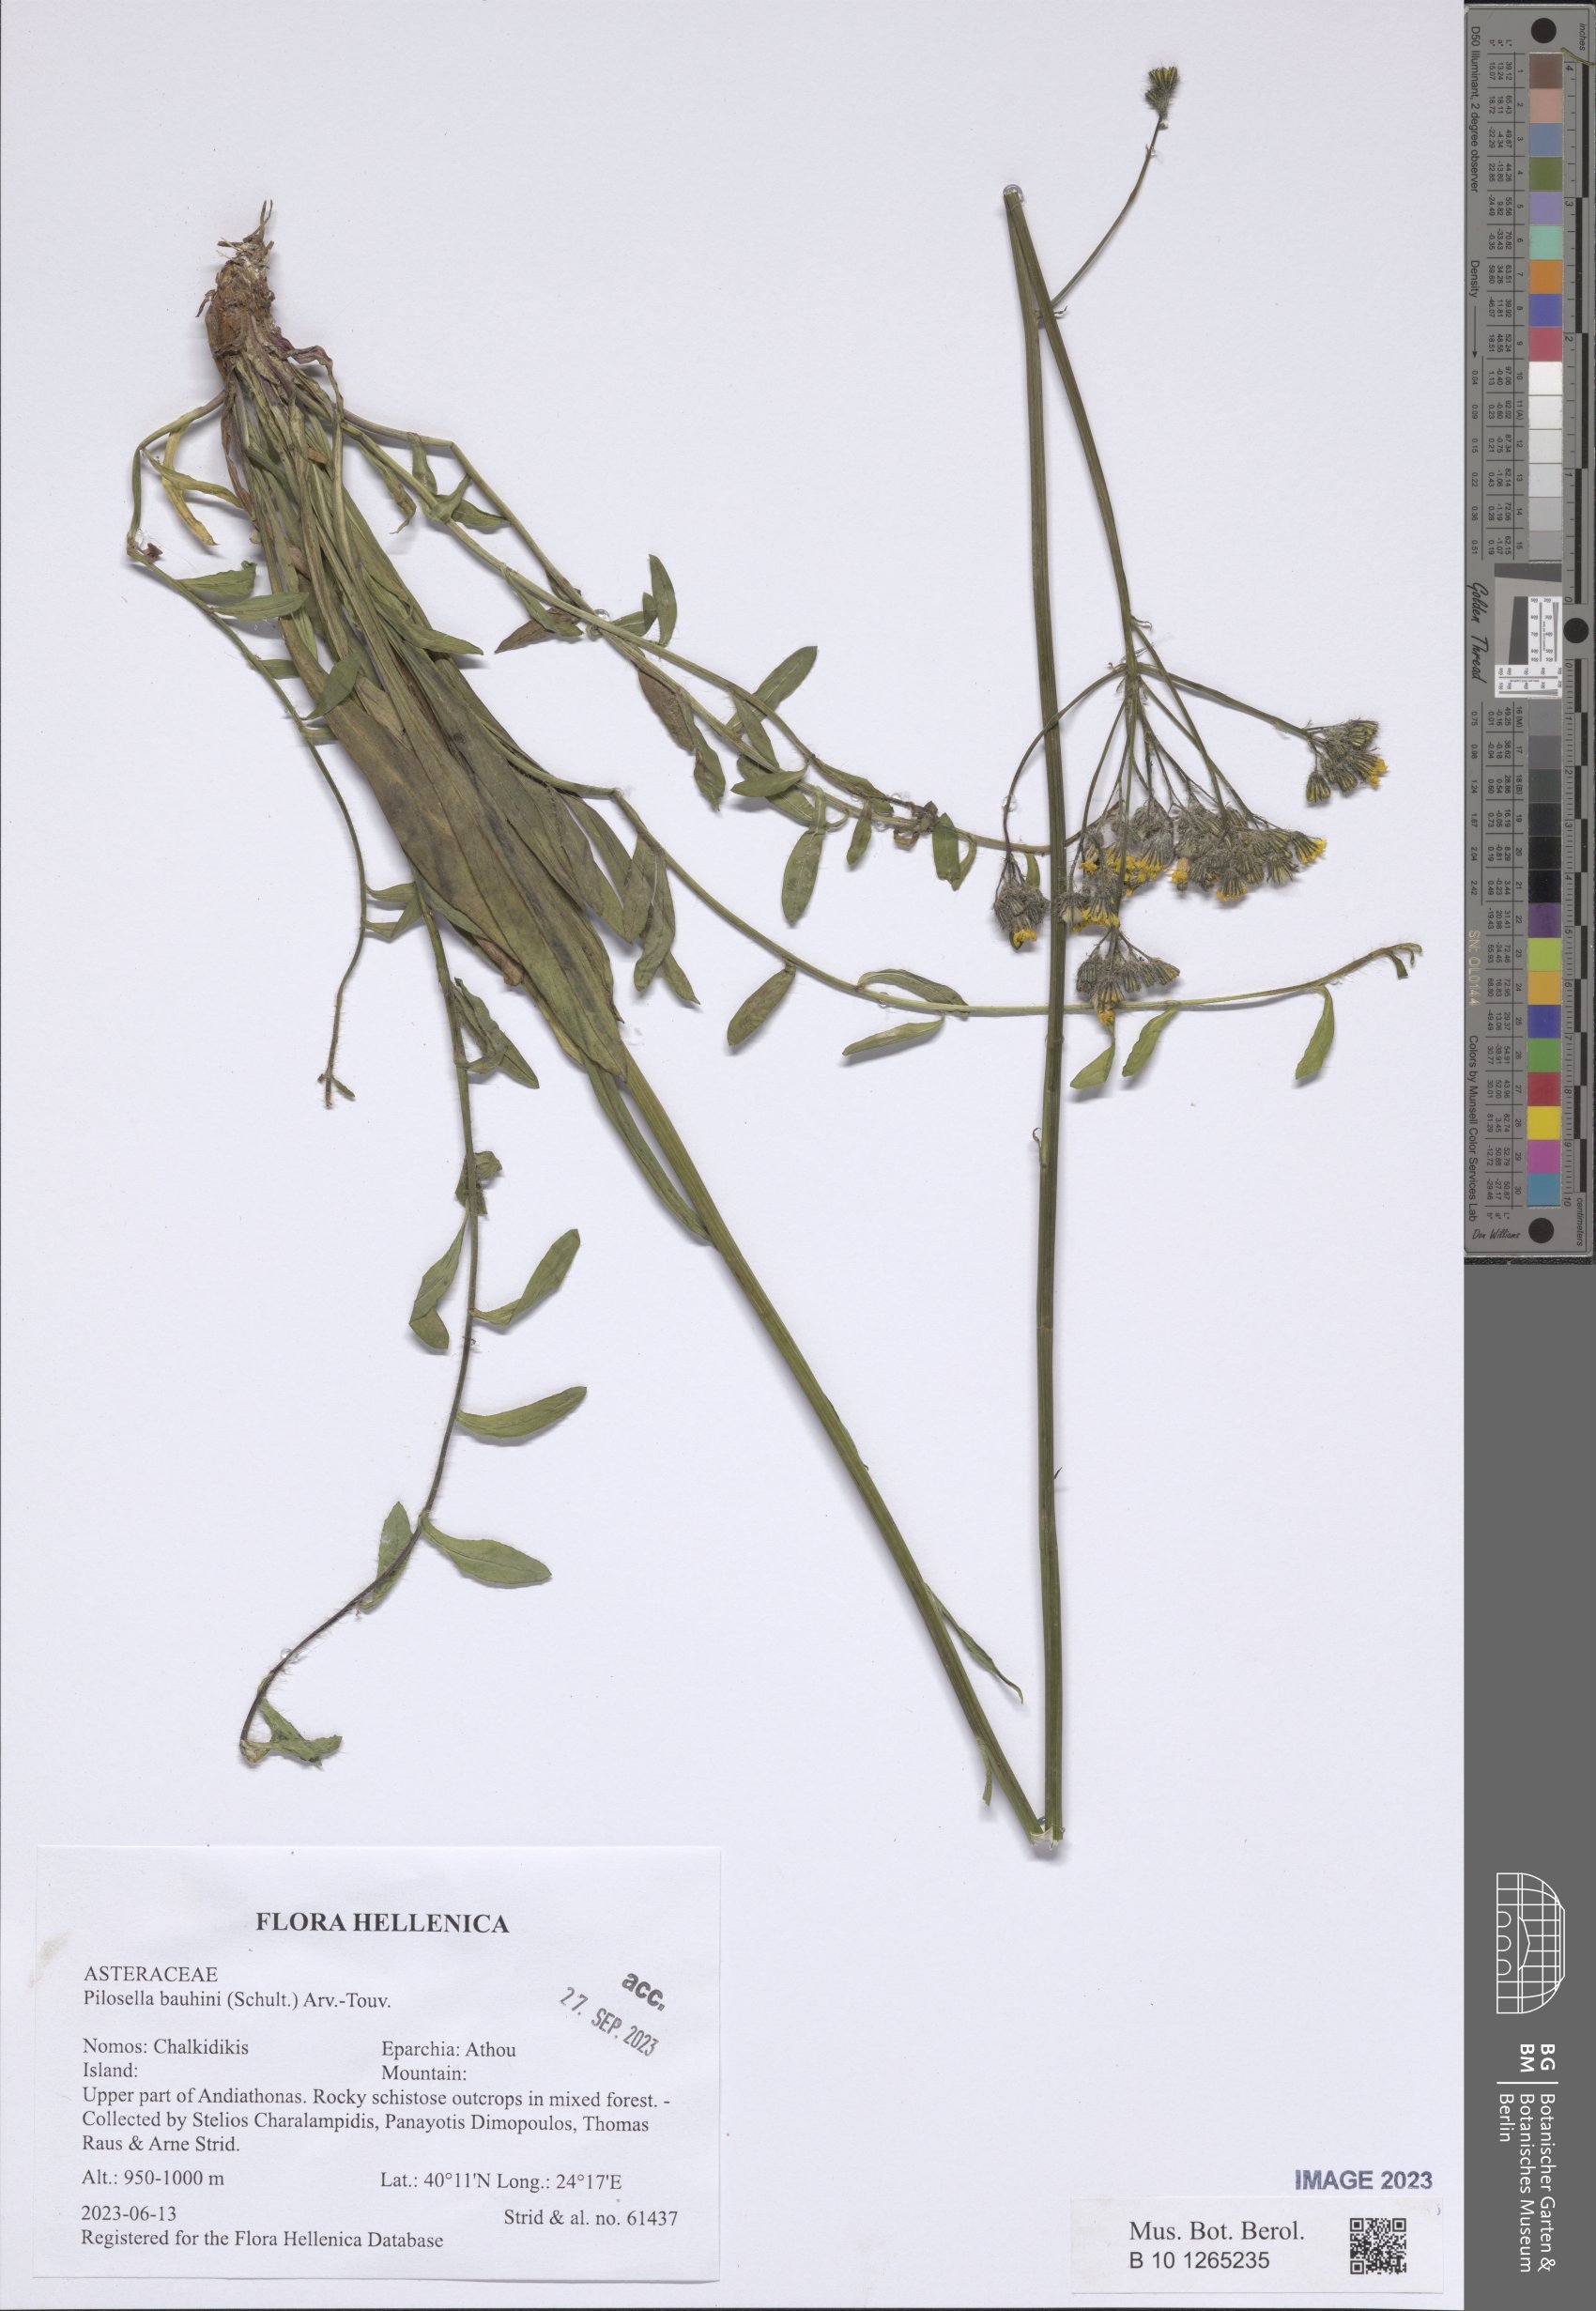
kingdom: Plantae
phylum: Tracheophyta
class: Magnoliopsida
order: Asterales
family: Asteraceae
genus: Pilosella
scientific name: Pilosella bauhini
